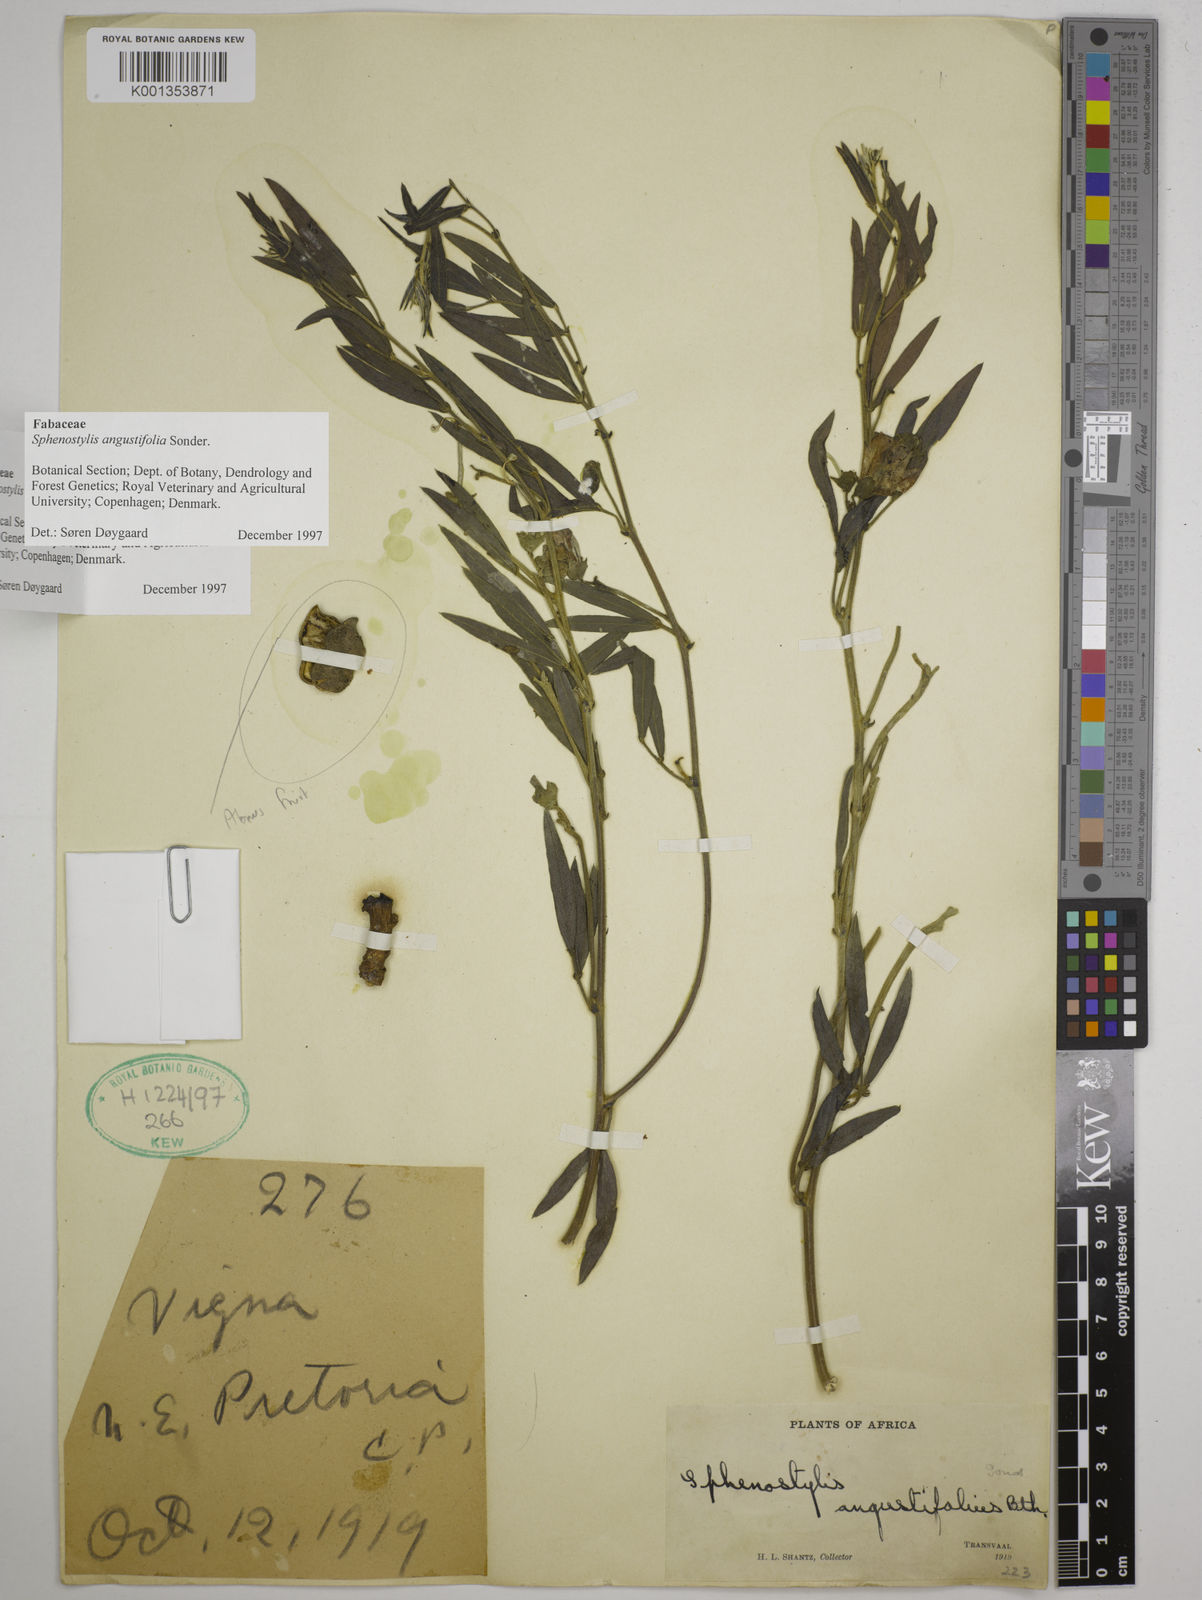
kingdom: Plantae
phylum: Tracheophyta
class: Magnoliopsida
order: Fabales
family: Fabaceae
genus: Sphenostylis
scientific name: Sphenostylis angustifolia
